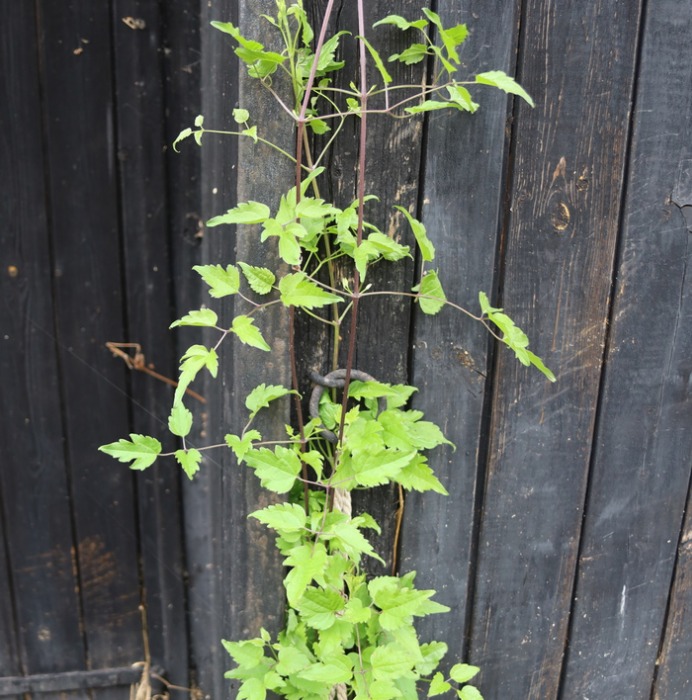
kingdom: Plantae
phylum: Tracheophyta
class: Magnoliopsida
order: Ranunculales
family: Ranunculaceae
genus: Clematis
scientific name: Clematis vitalba
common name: Skovranke
